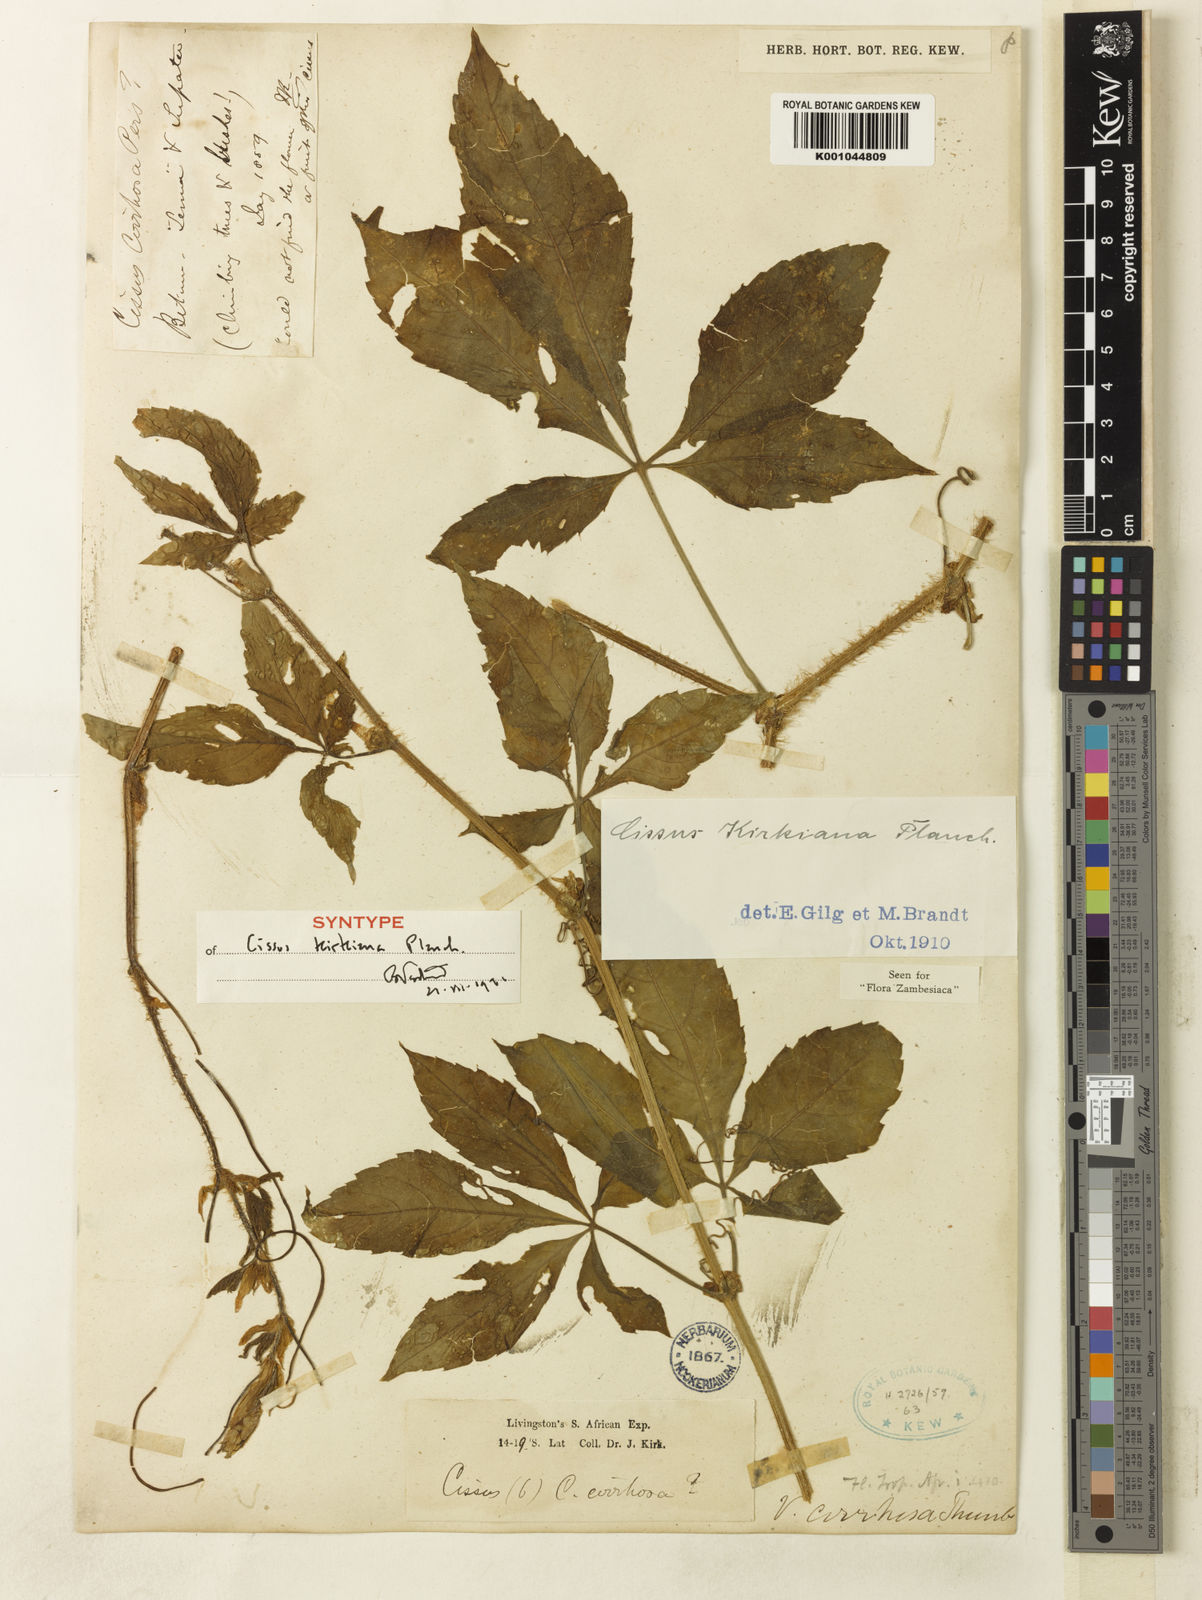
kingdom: Plantae
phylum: Tracheophyta
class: Magnoliopsida
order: Vitales
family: Vitaceae
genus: Cyphostemma
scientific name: Cyphostemma kirkianum
